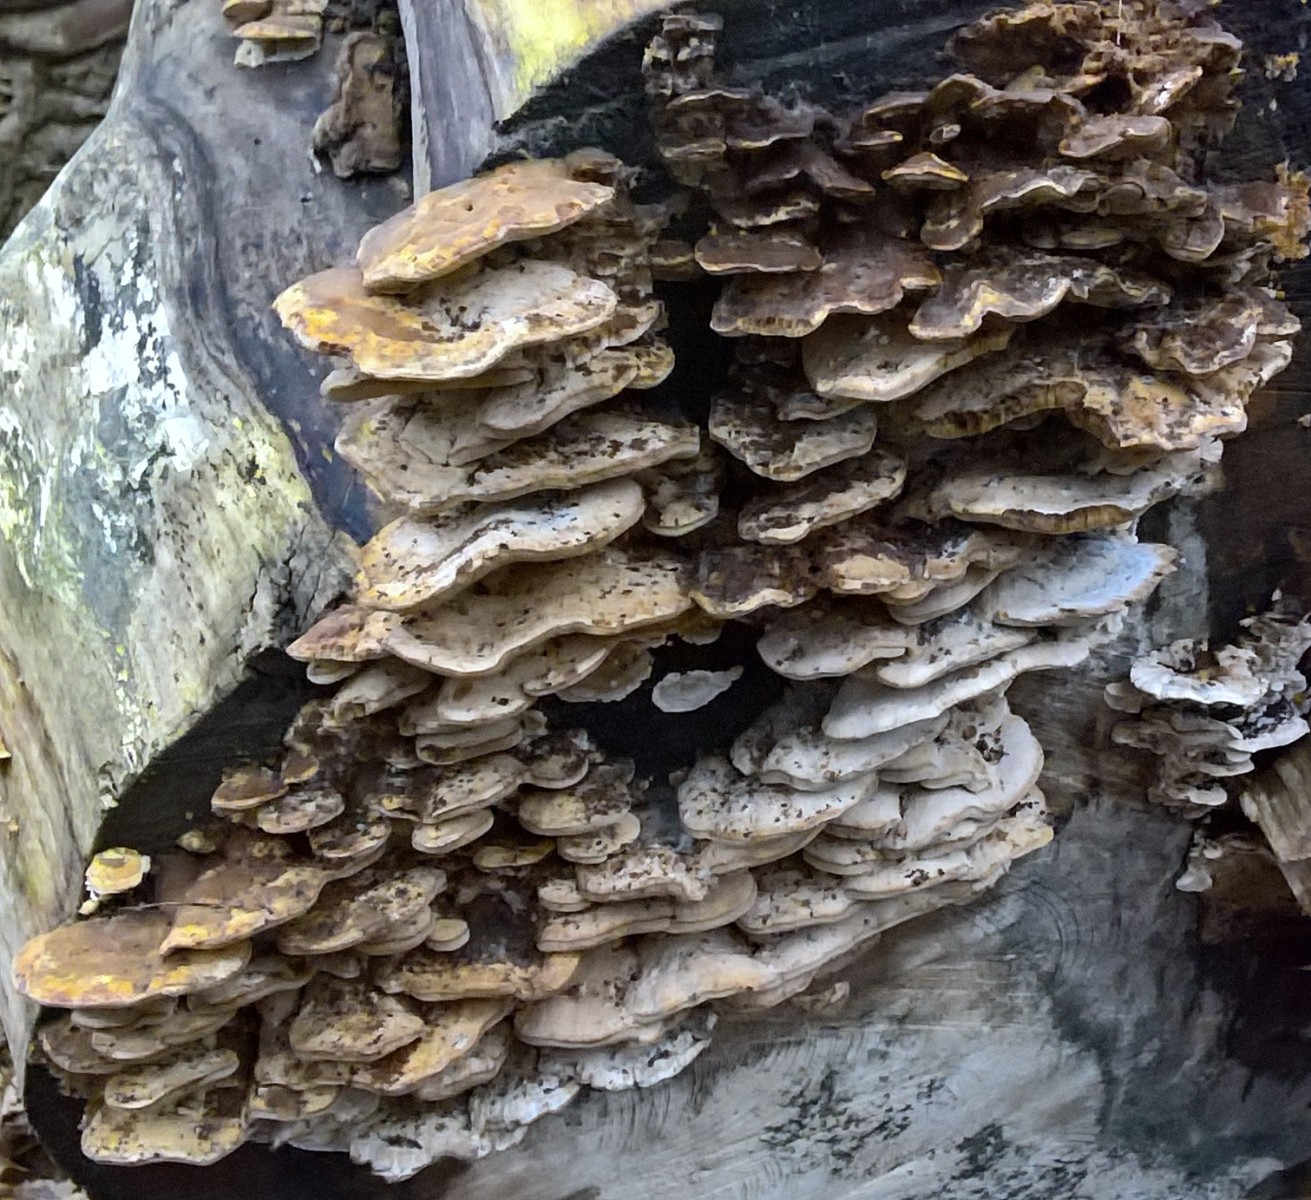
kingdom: Fungi
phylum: Basidiomycota
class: Agaricomycetes
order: Polyporales
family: Phanerochaetaceae
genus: Bjerkandera
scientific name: Bjerkandera fumosa
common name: grågul sodporesvamp
